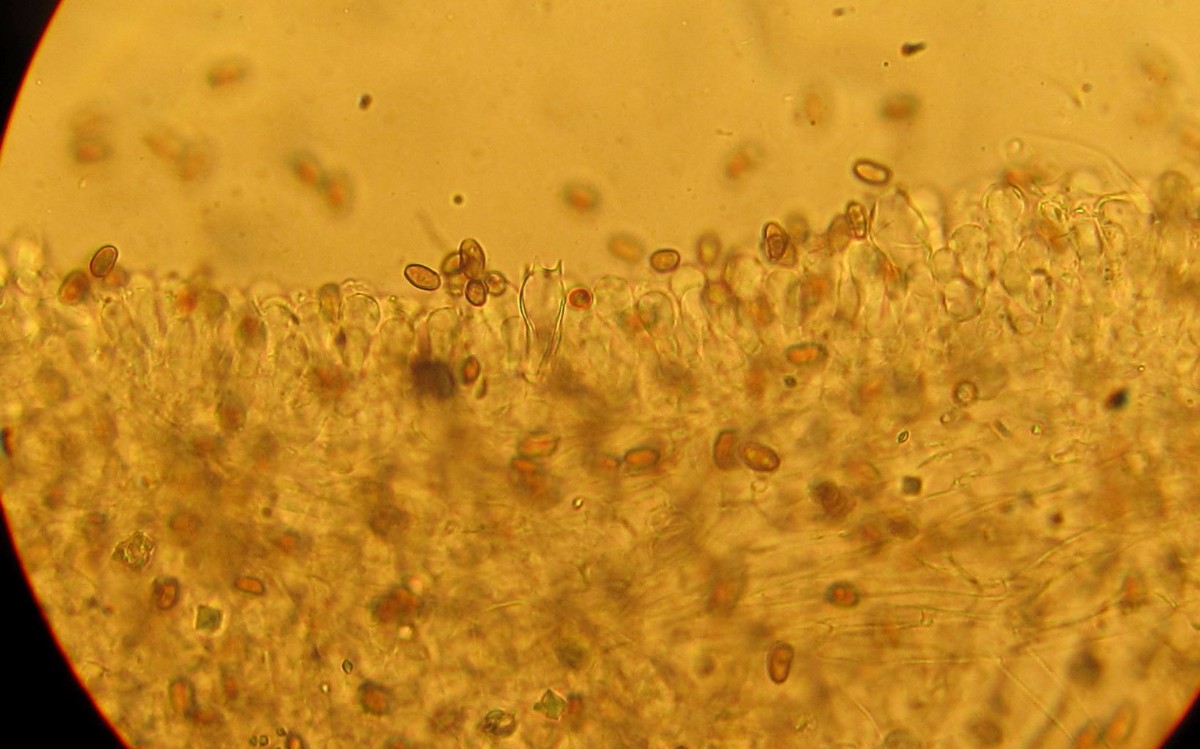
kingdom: Fungi
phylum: Basidiomycota
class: Agaricomycetes
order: Agaricales
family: Psathyrellaceae
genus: Psathyrella
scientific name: Psathyrella
